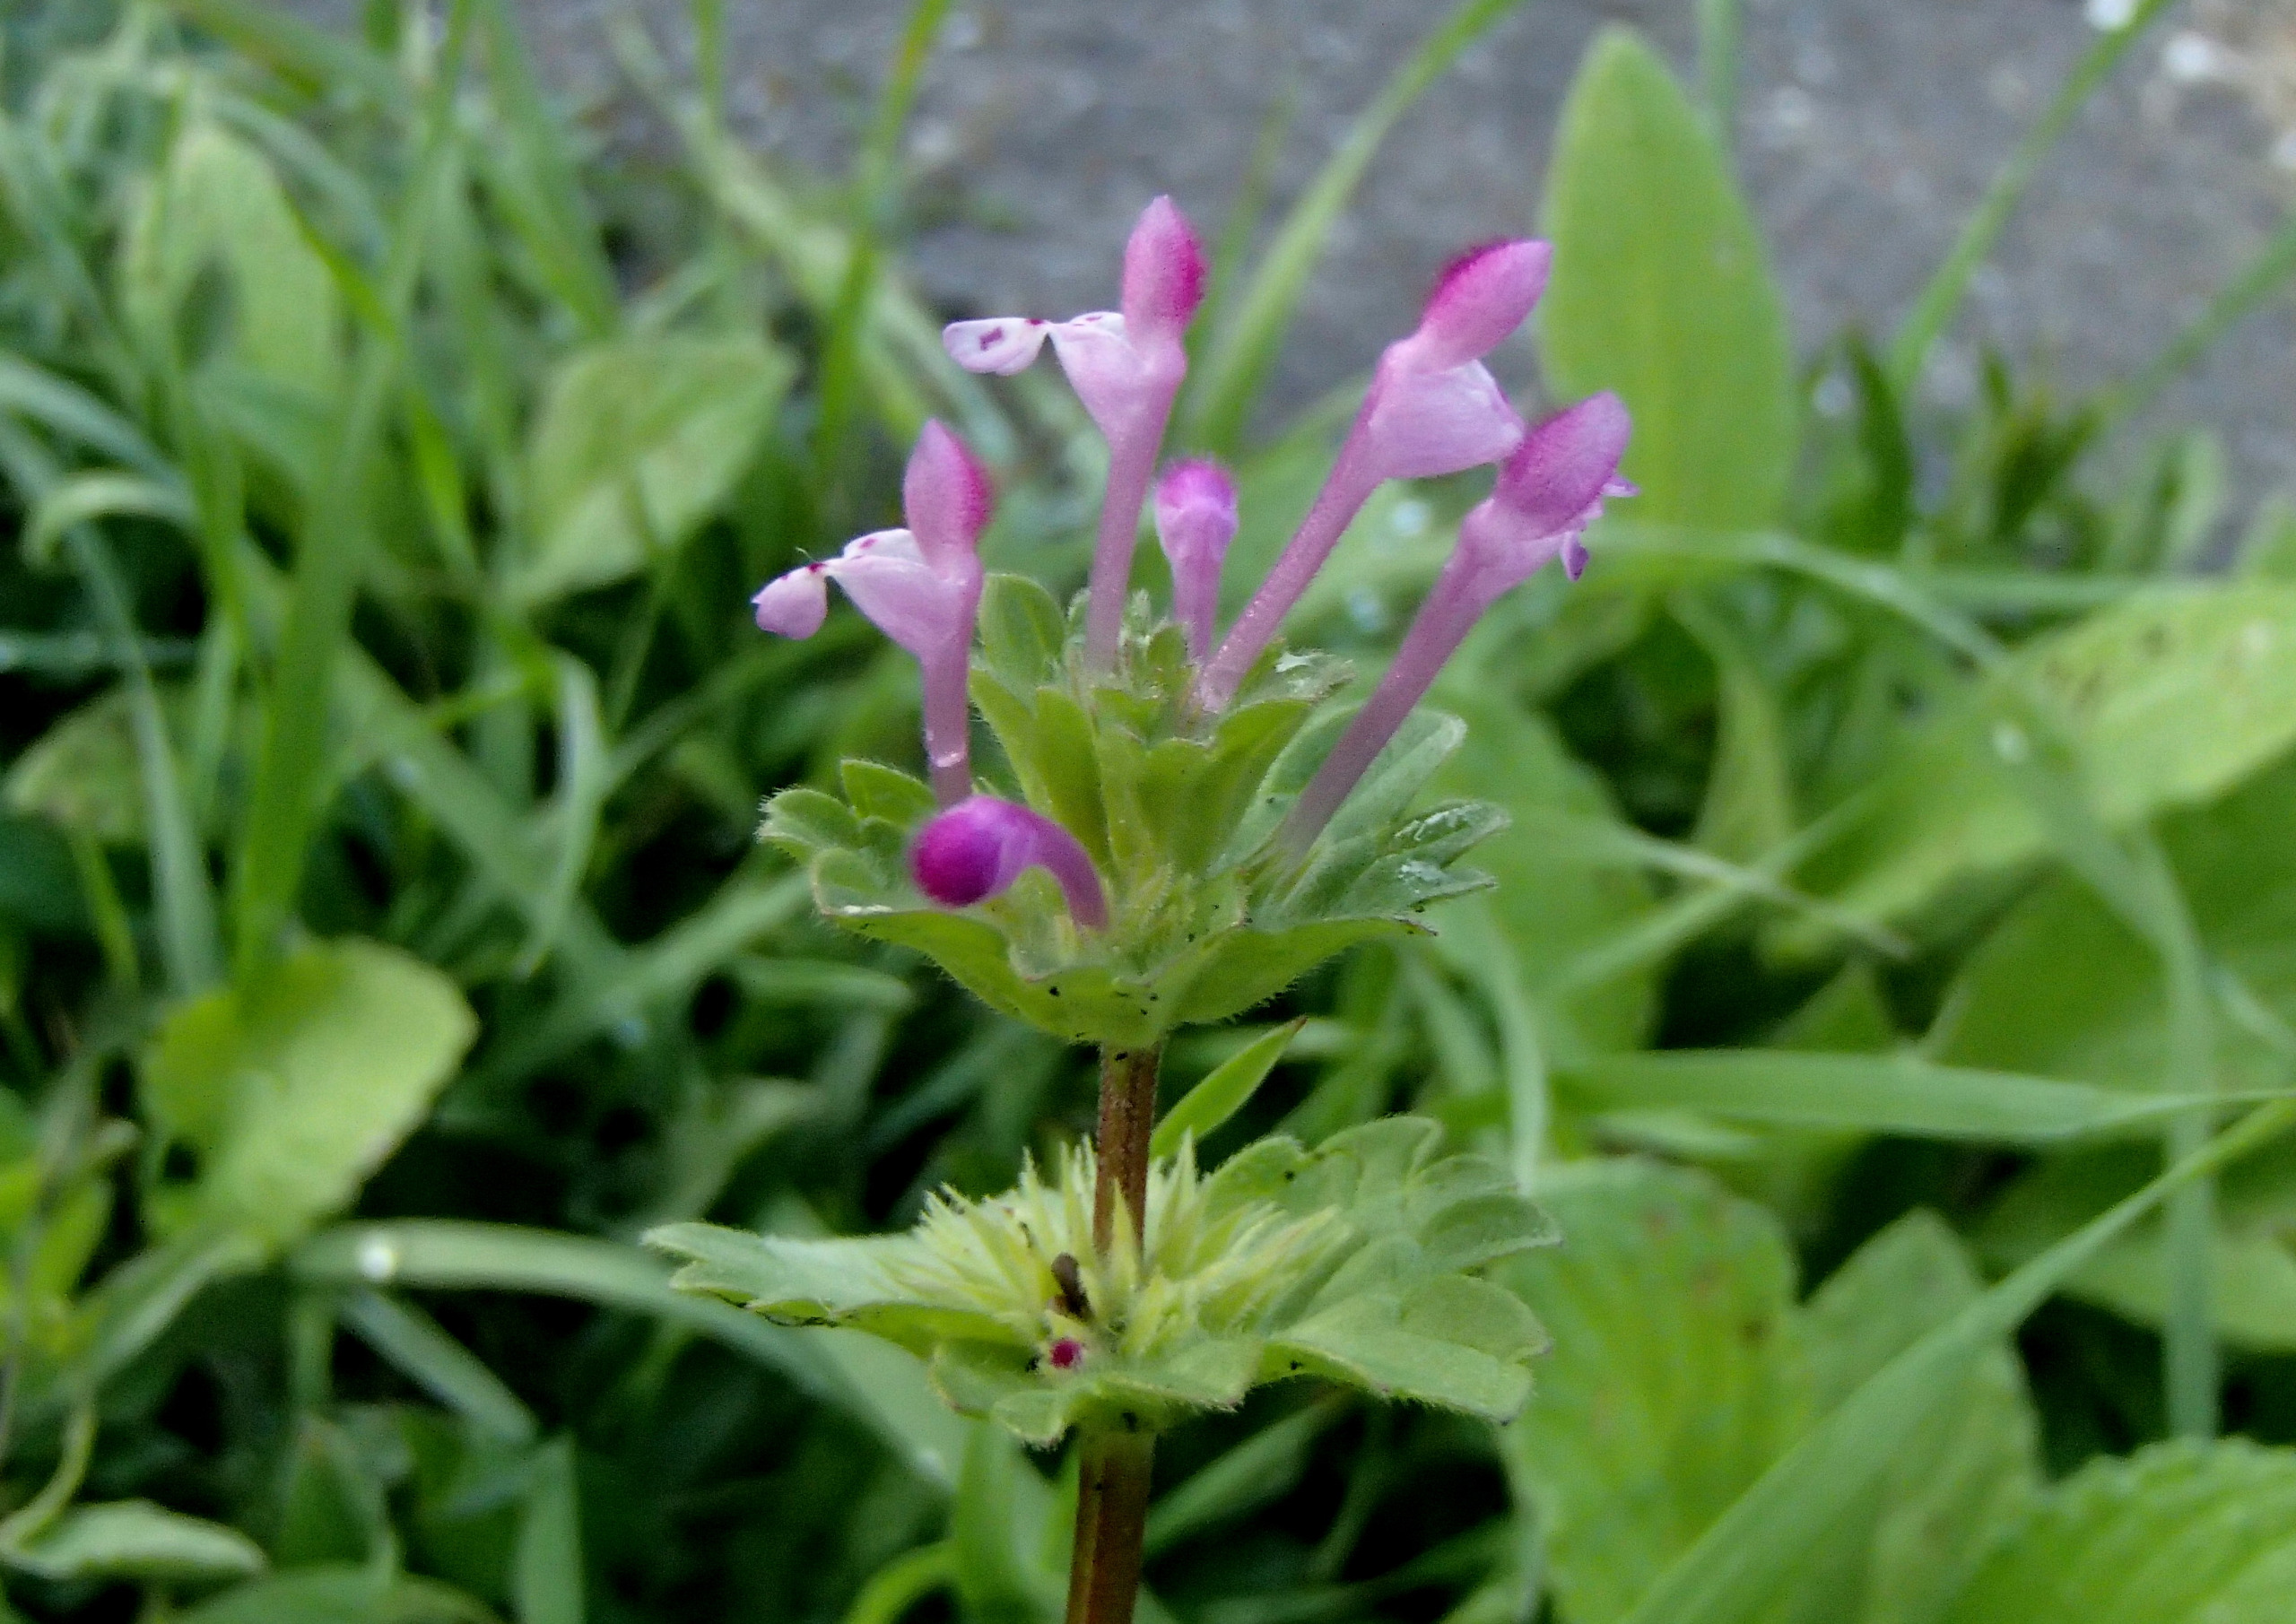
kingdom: Plantae
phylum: Tracheophyta
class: Magnoliopsida
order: Lamiales
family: Lamiaceae
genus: Lamium
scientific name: Lamium amplexicaule
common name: Liden tvetand
